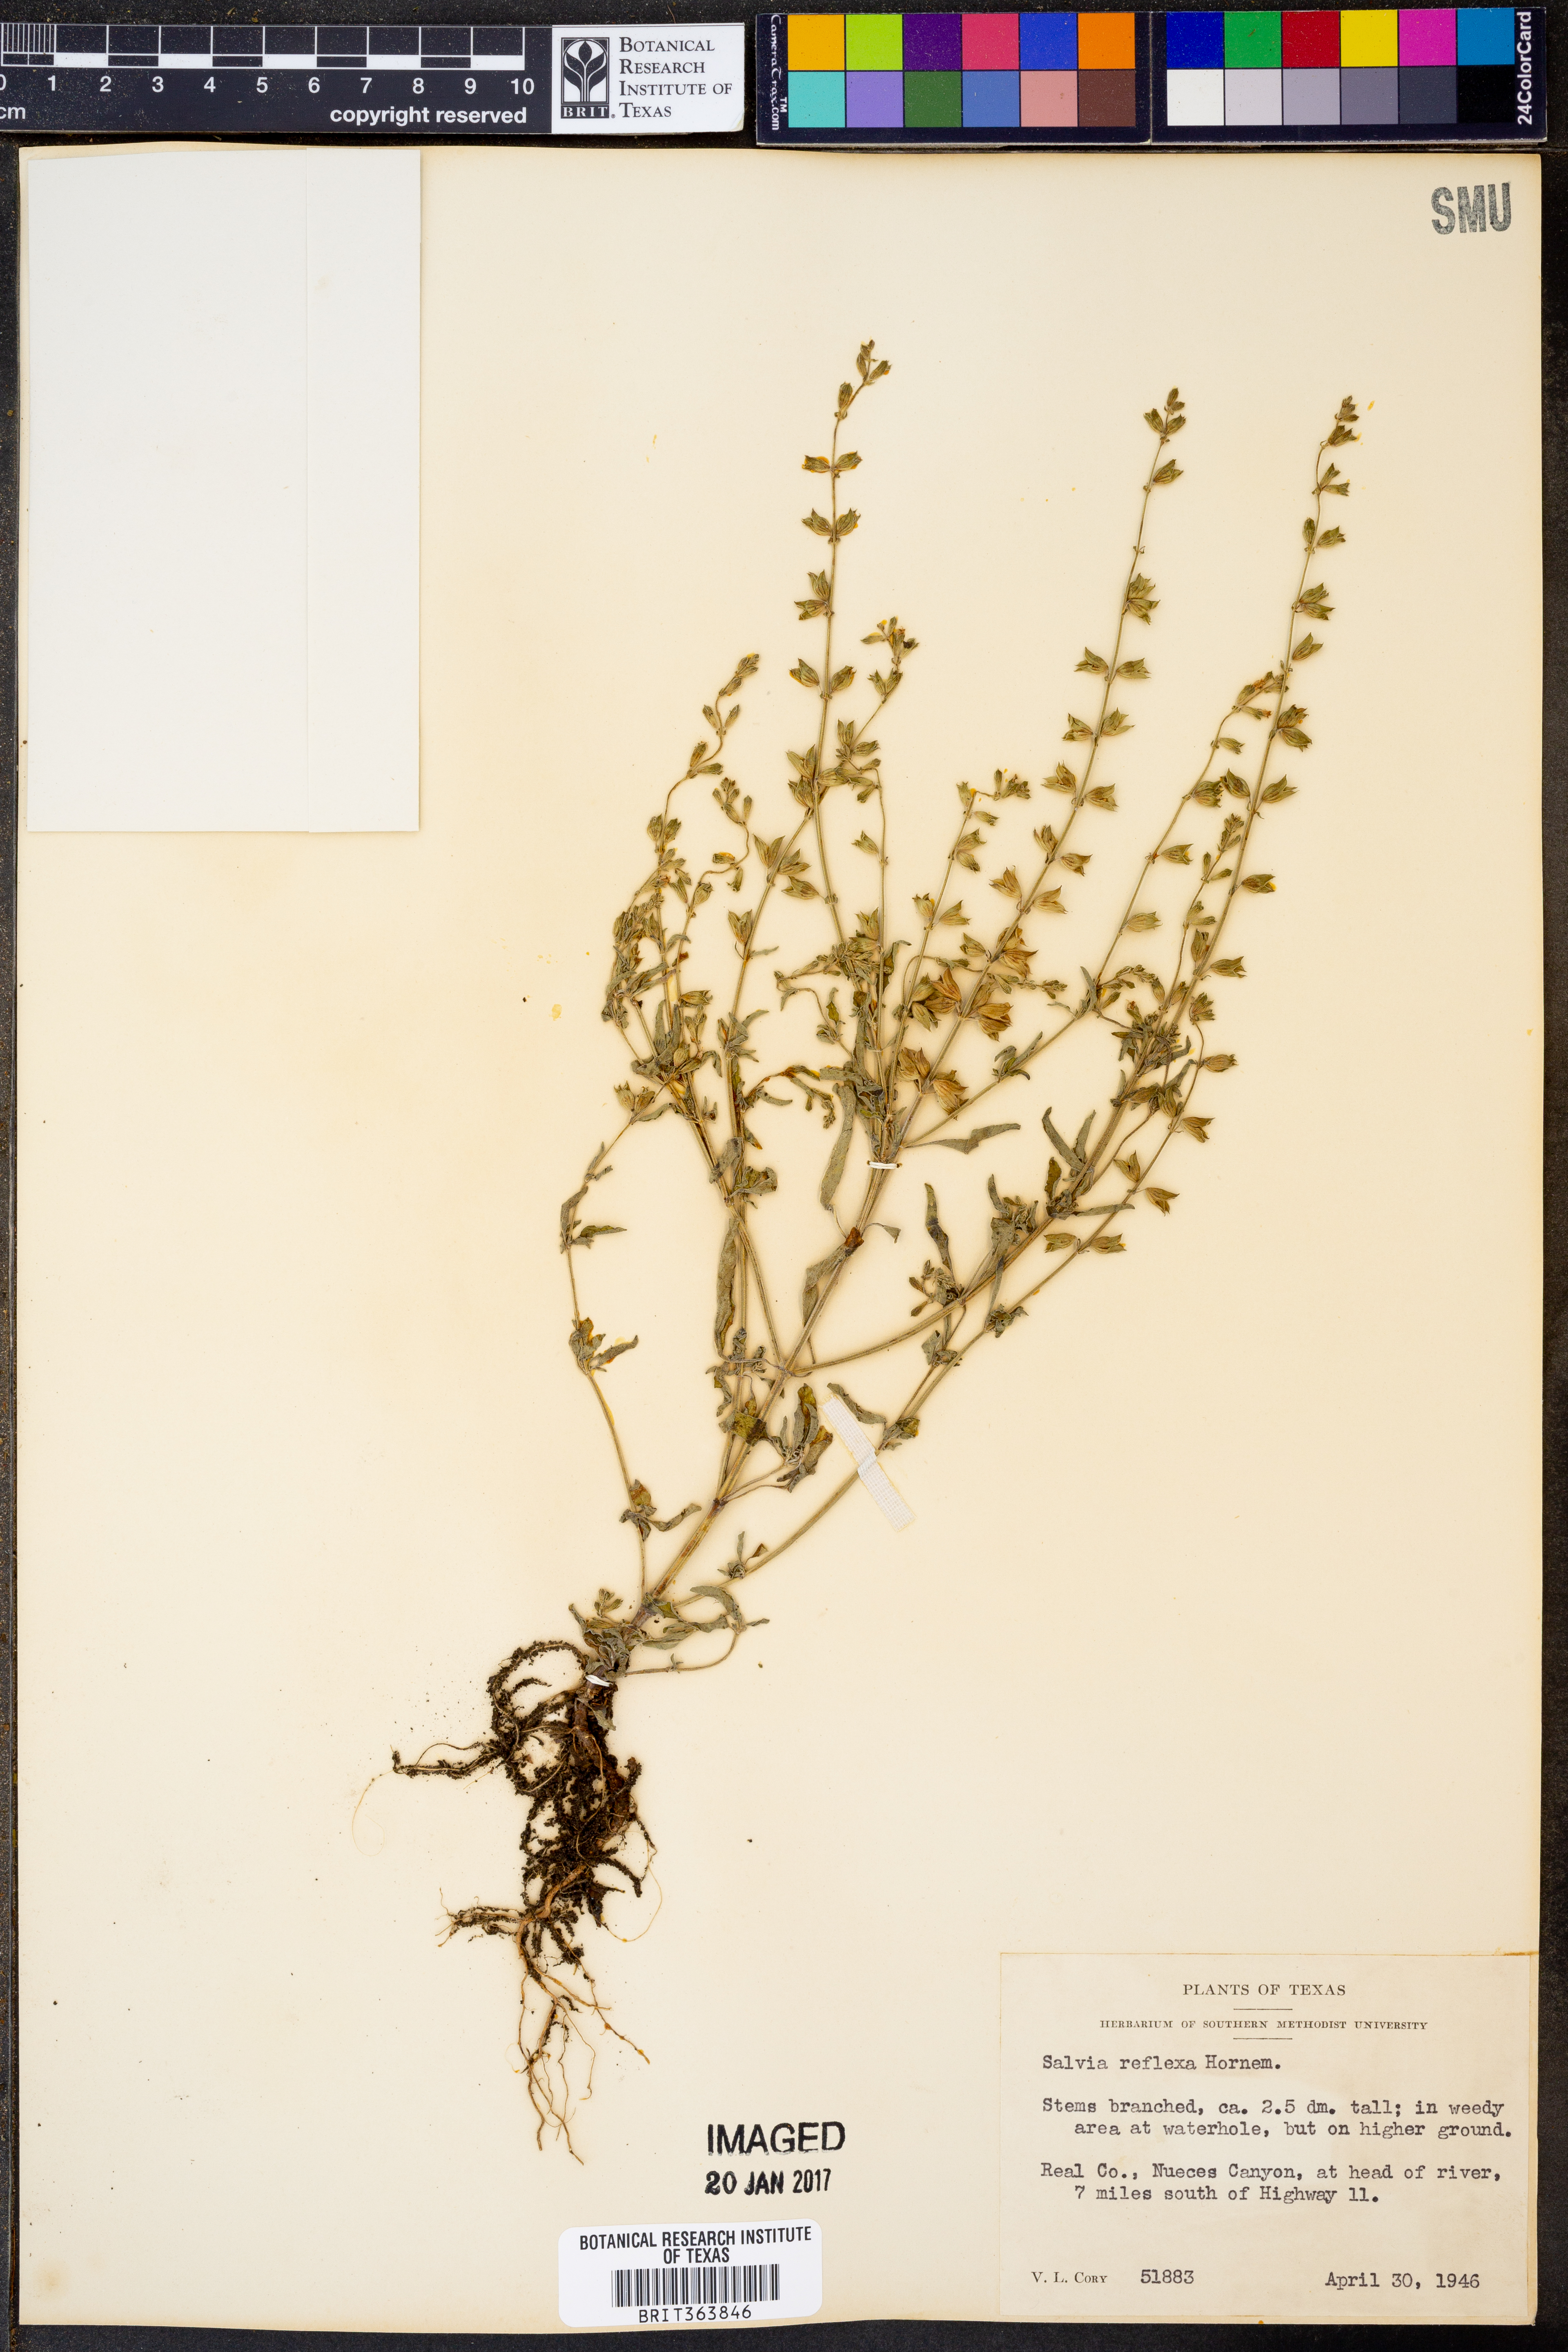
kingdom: Plantae
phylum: Tracheophyta
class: Magnoliopsida
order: Lamiales
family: Lamiaceae
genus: Salvia
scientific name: Salvia reflexa
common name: Mintweed
